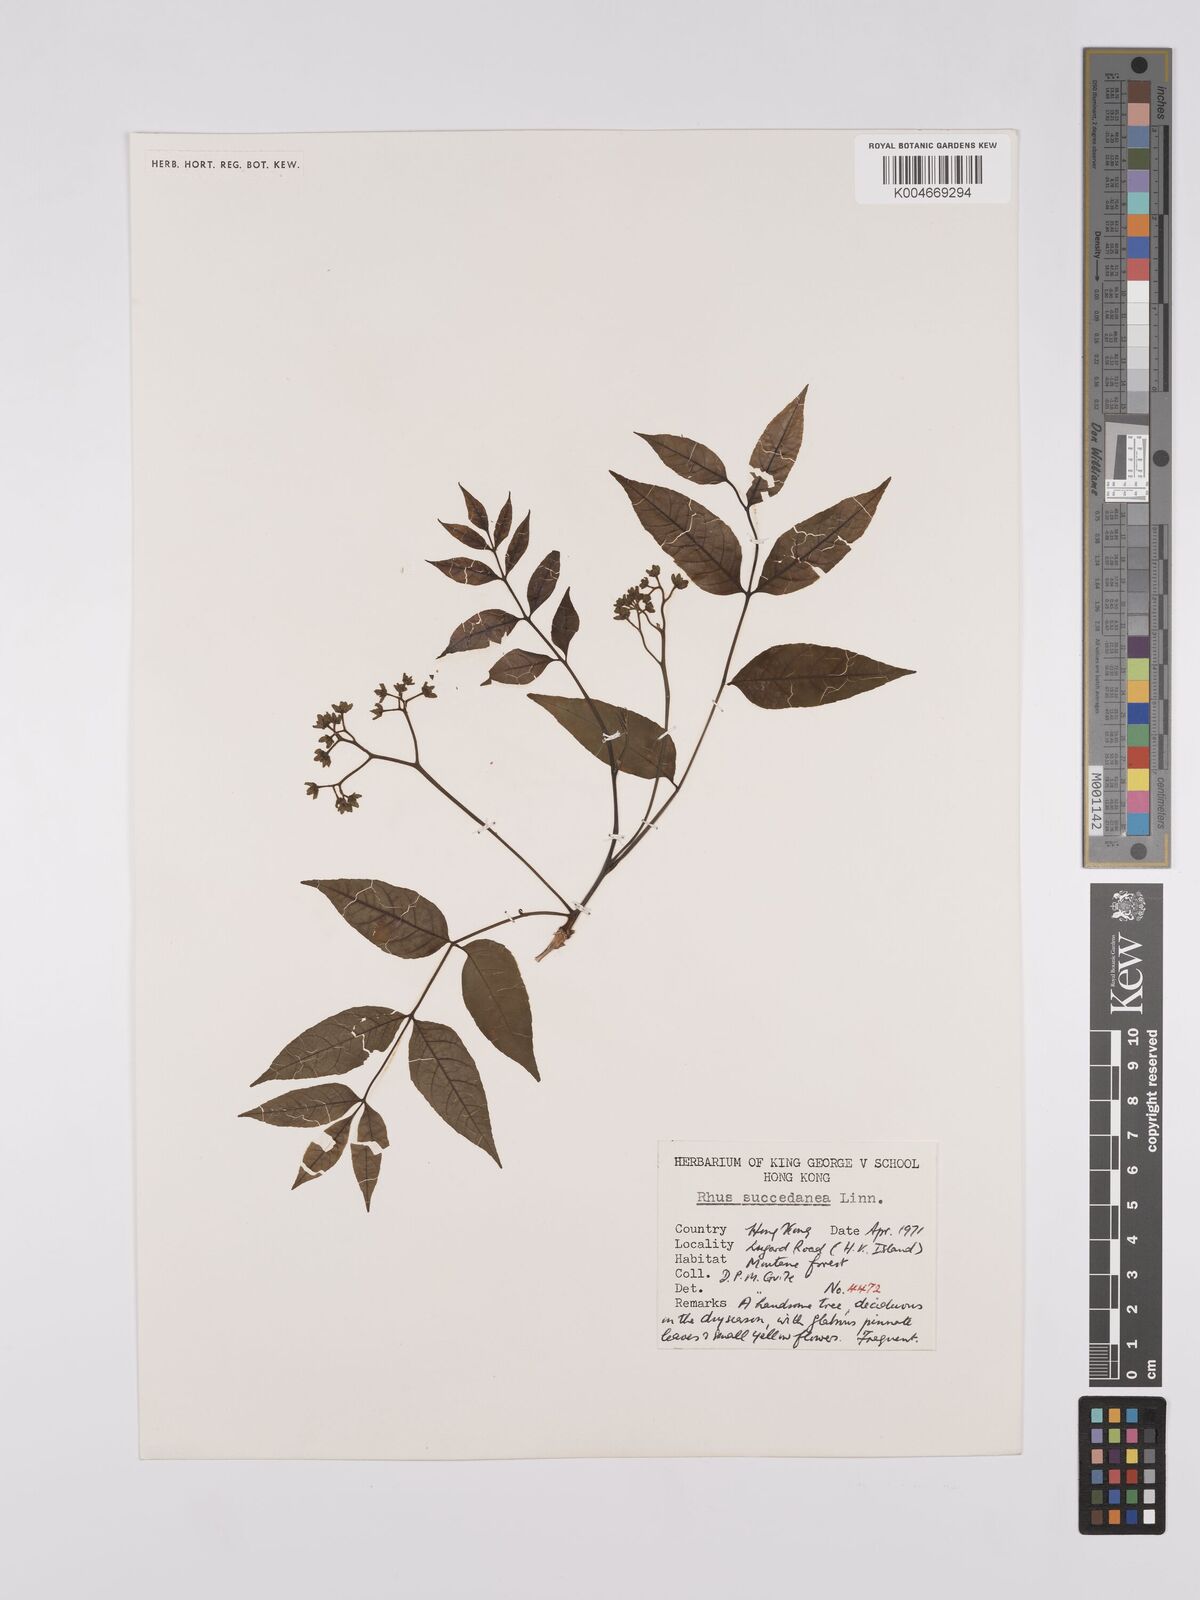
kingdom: Plantae
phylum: Tracheophyta
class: Magnoliopsida
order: Sapindales
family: Anacardiaceae
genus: Toxicodendron
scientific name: Toxicodendron succedaneum
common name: Wax tree
